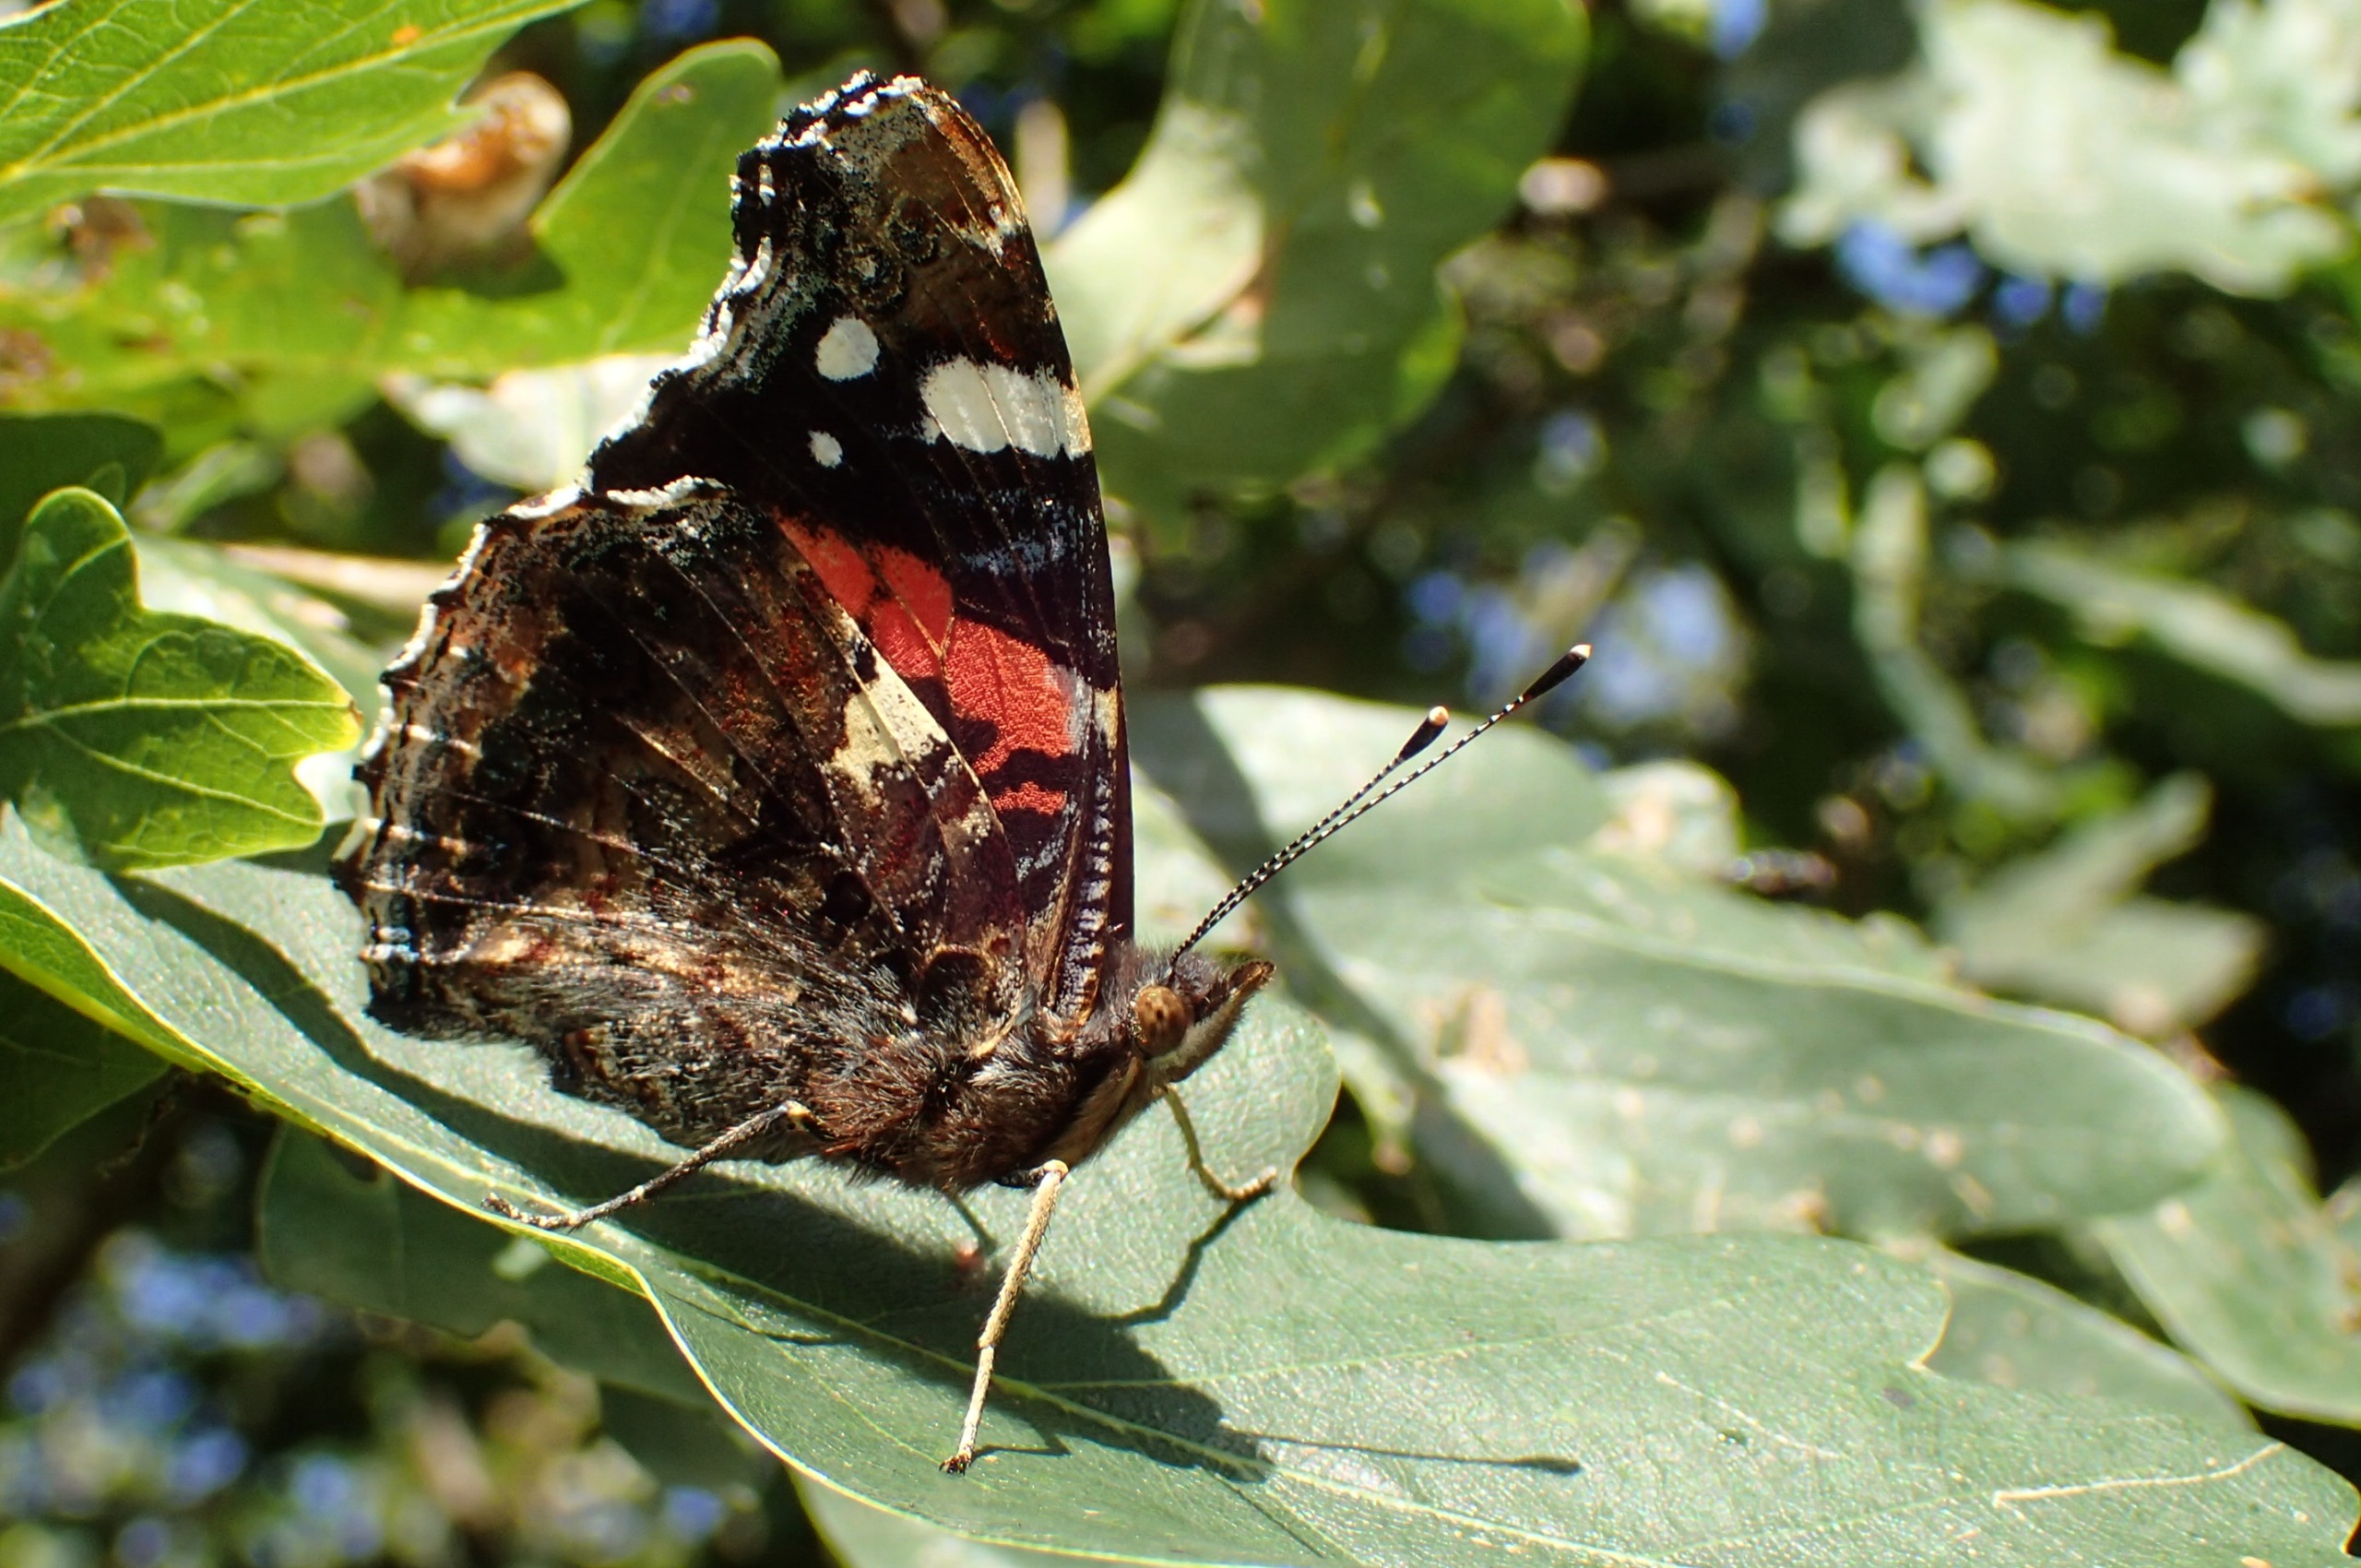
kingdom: Animalia
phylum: Arthropoda
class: Insecta
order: Lepidoptera
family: Nymphalidae
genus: Vanessa
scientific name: Vanessa atalanta
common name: Admiral
